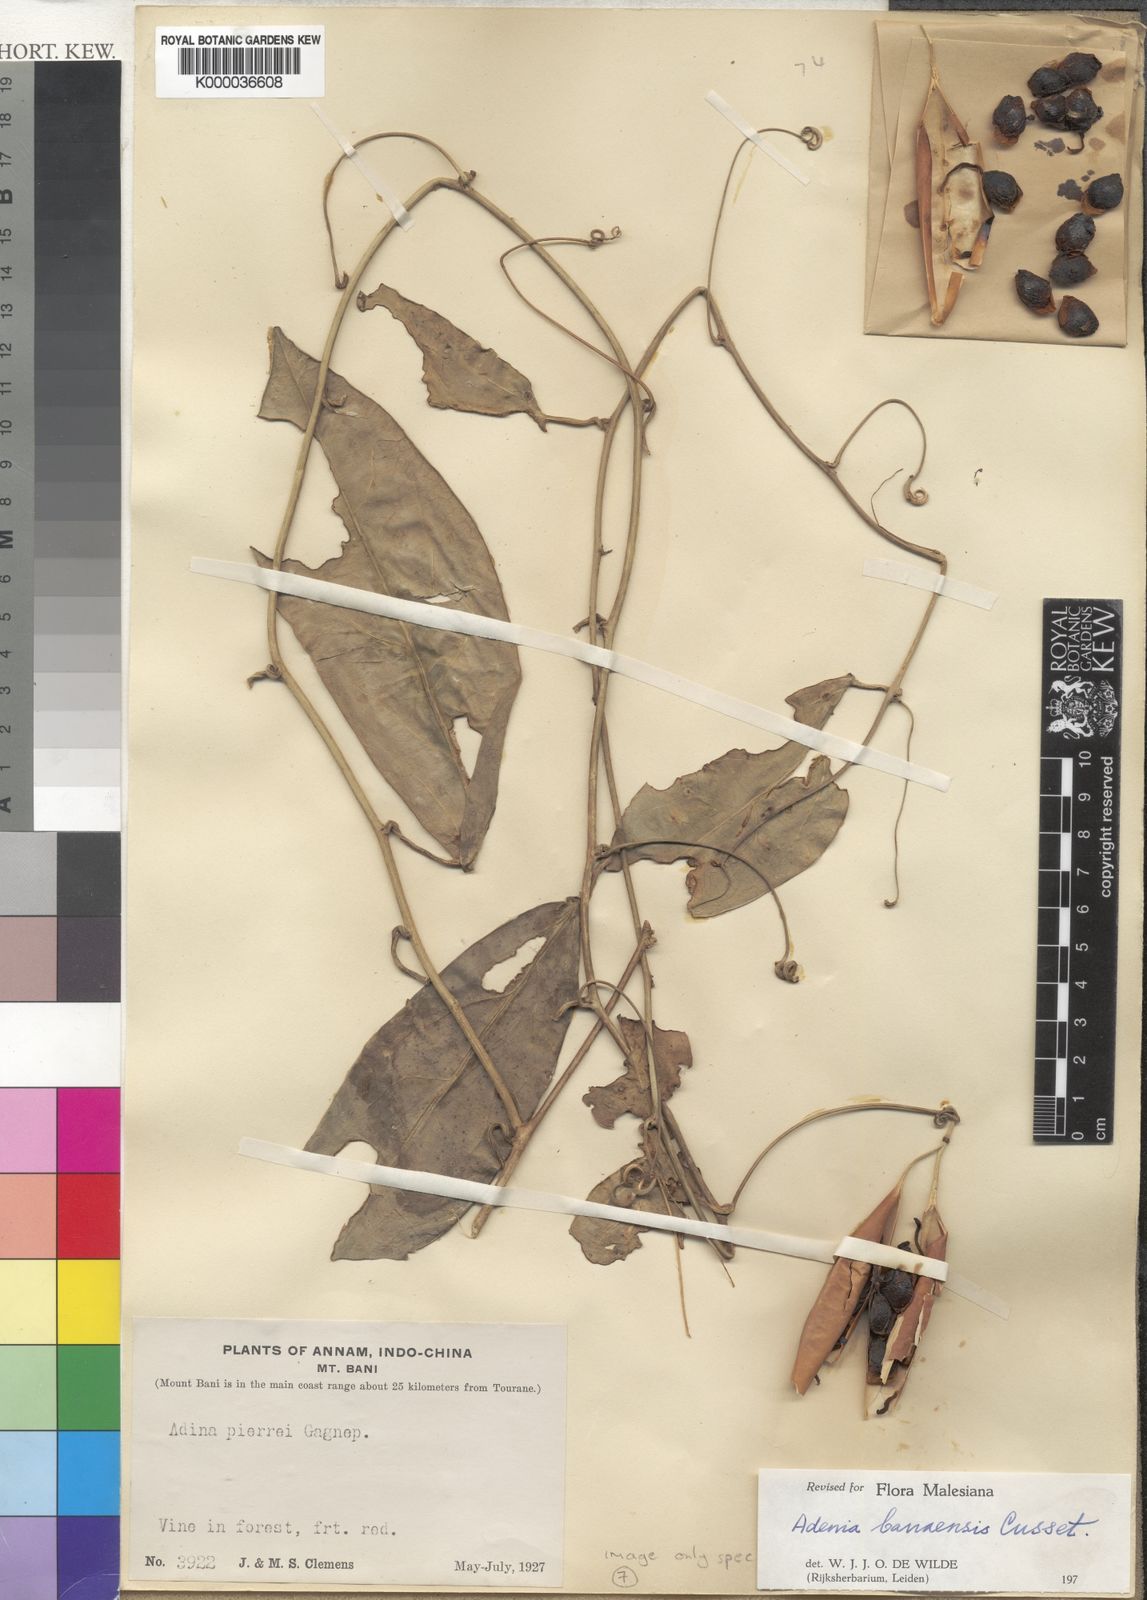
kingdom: Plantae
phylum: Tracheophyta
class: Magnoliopsida
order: Malpighiales
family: Passifloraceae
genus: Adenia
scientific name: Adenia banaensis
